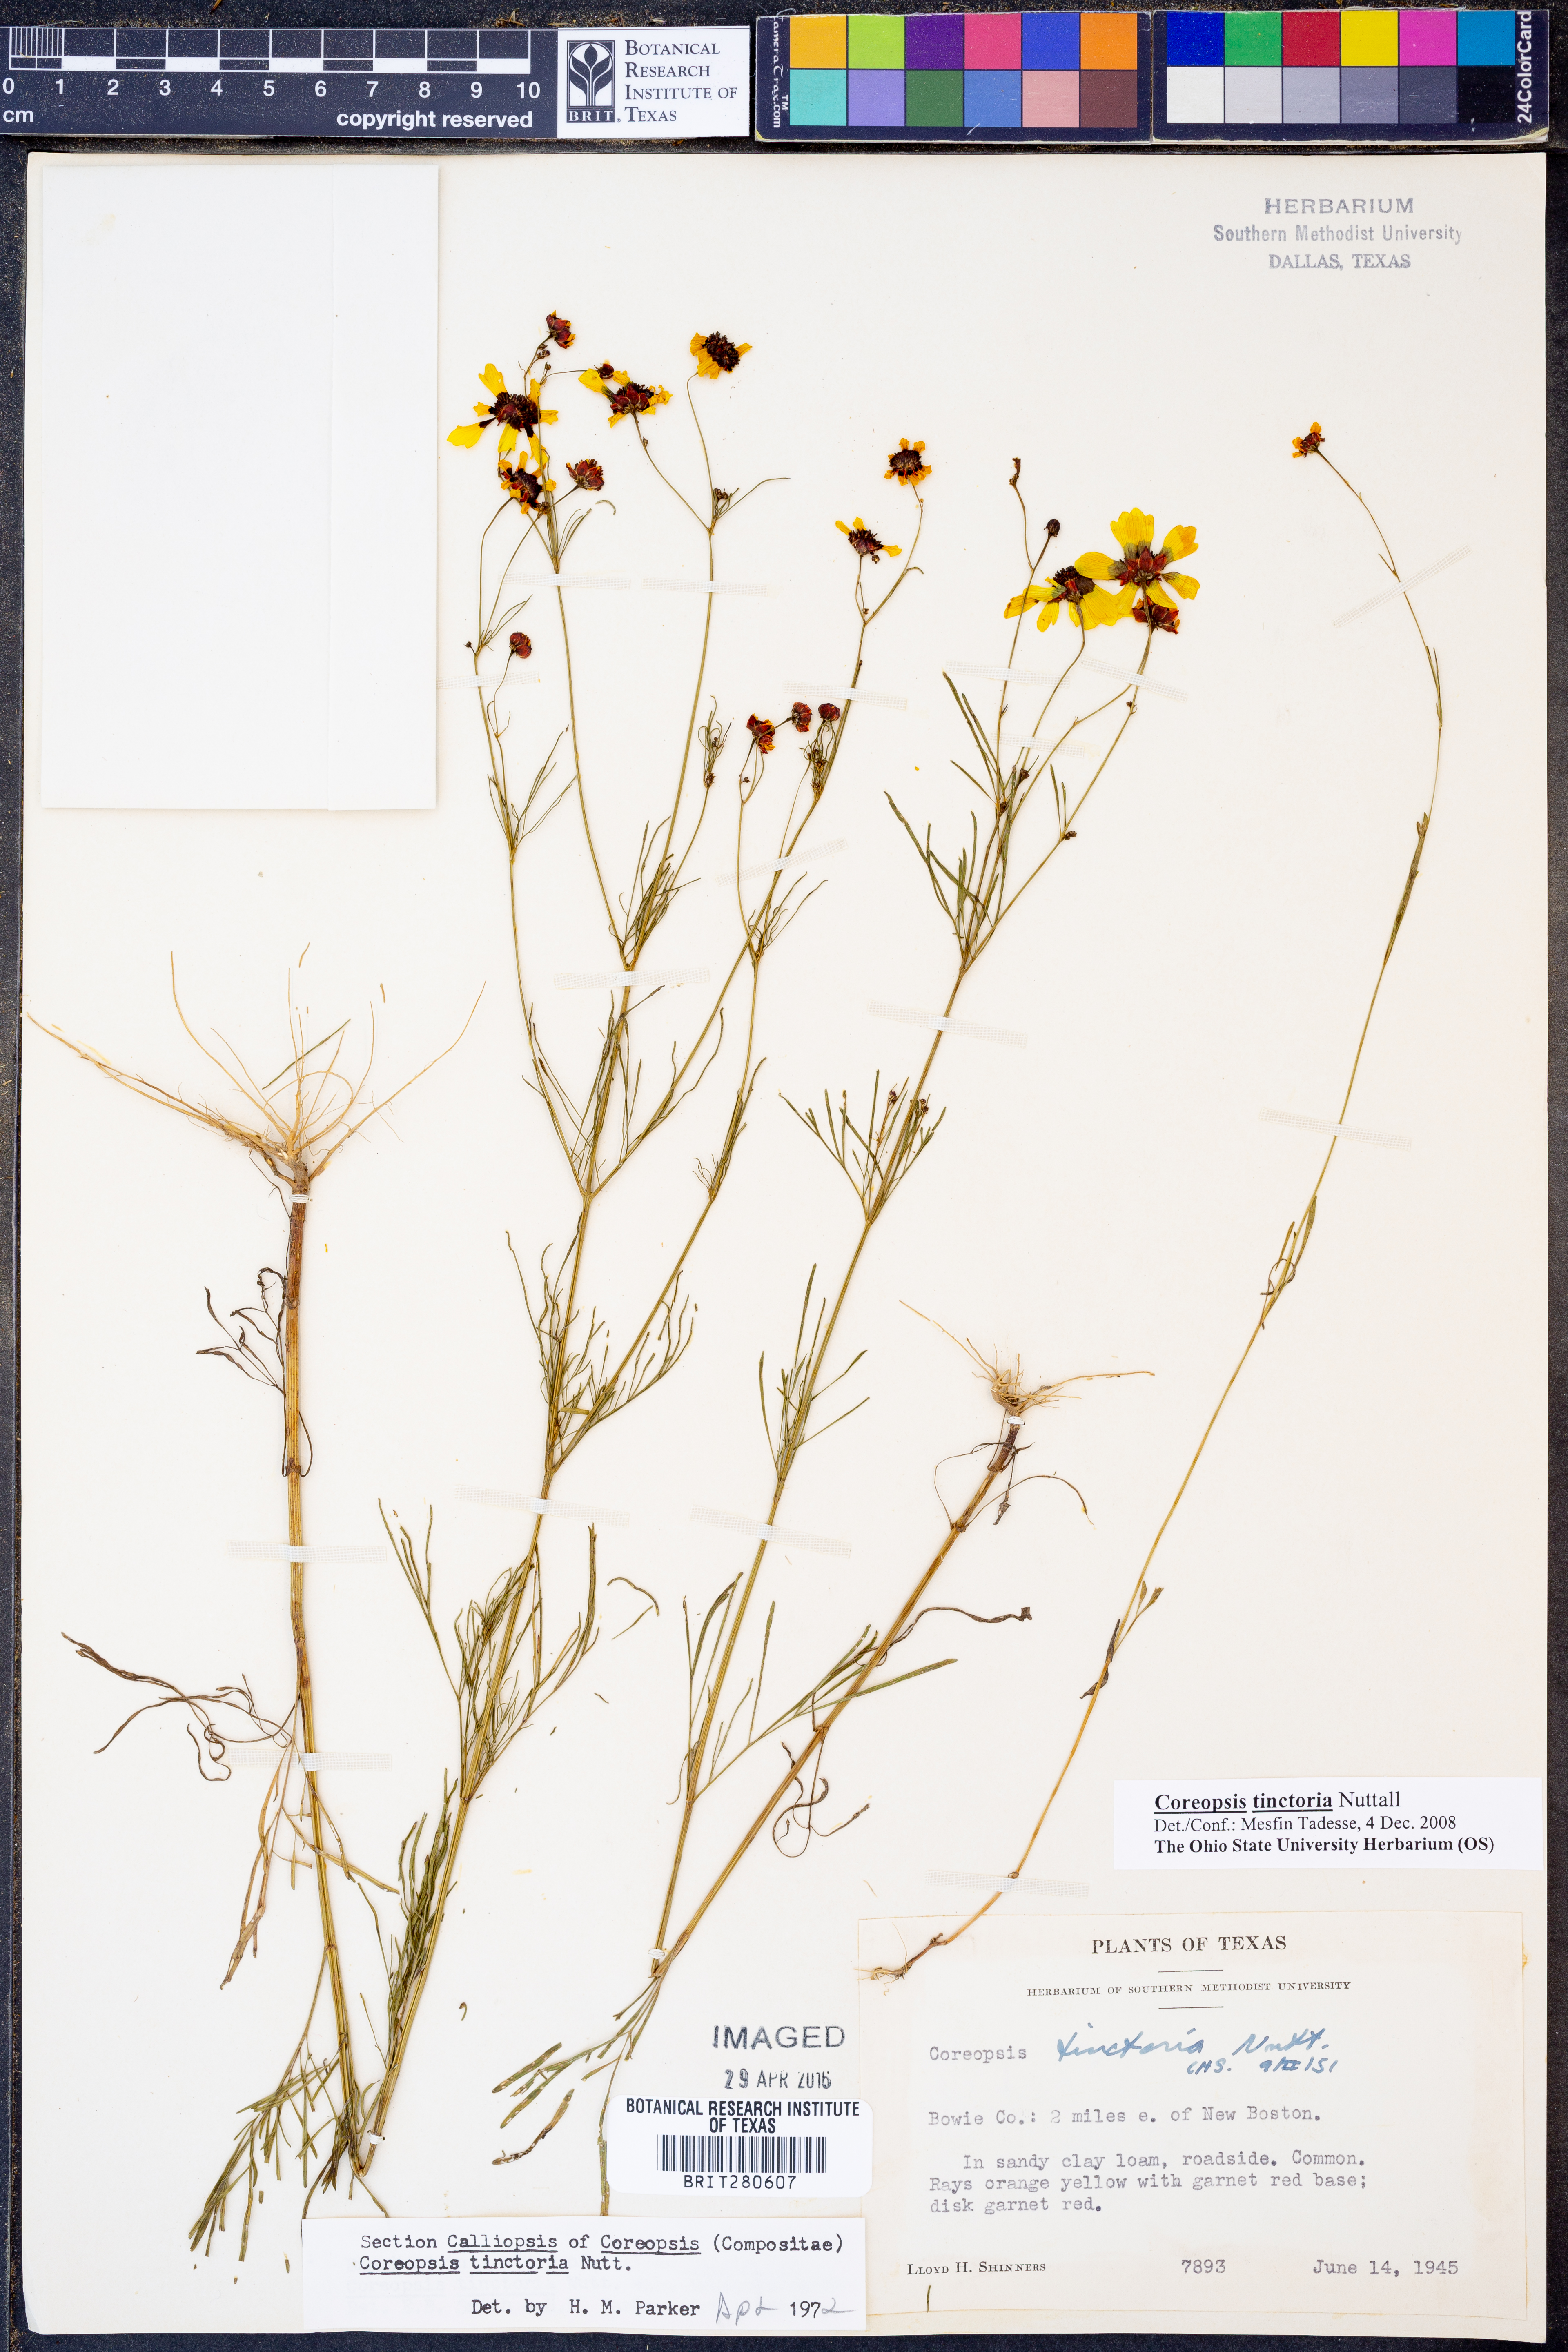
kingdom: Plantae
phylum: Tracheophyta
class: Magnoliopsida
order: Asterales
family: Asteraceae
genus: Coreopsis
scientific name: Coreopsis tinctoria
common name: Garden tickseed
